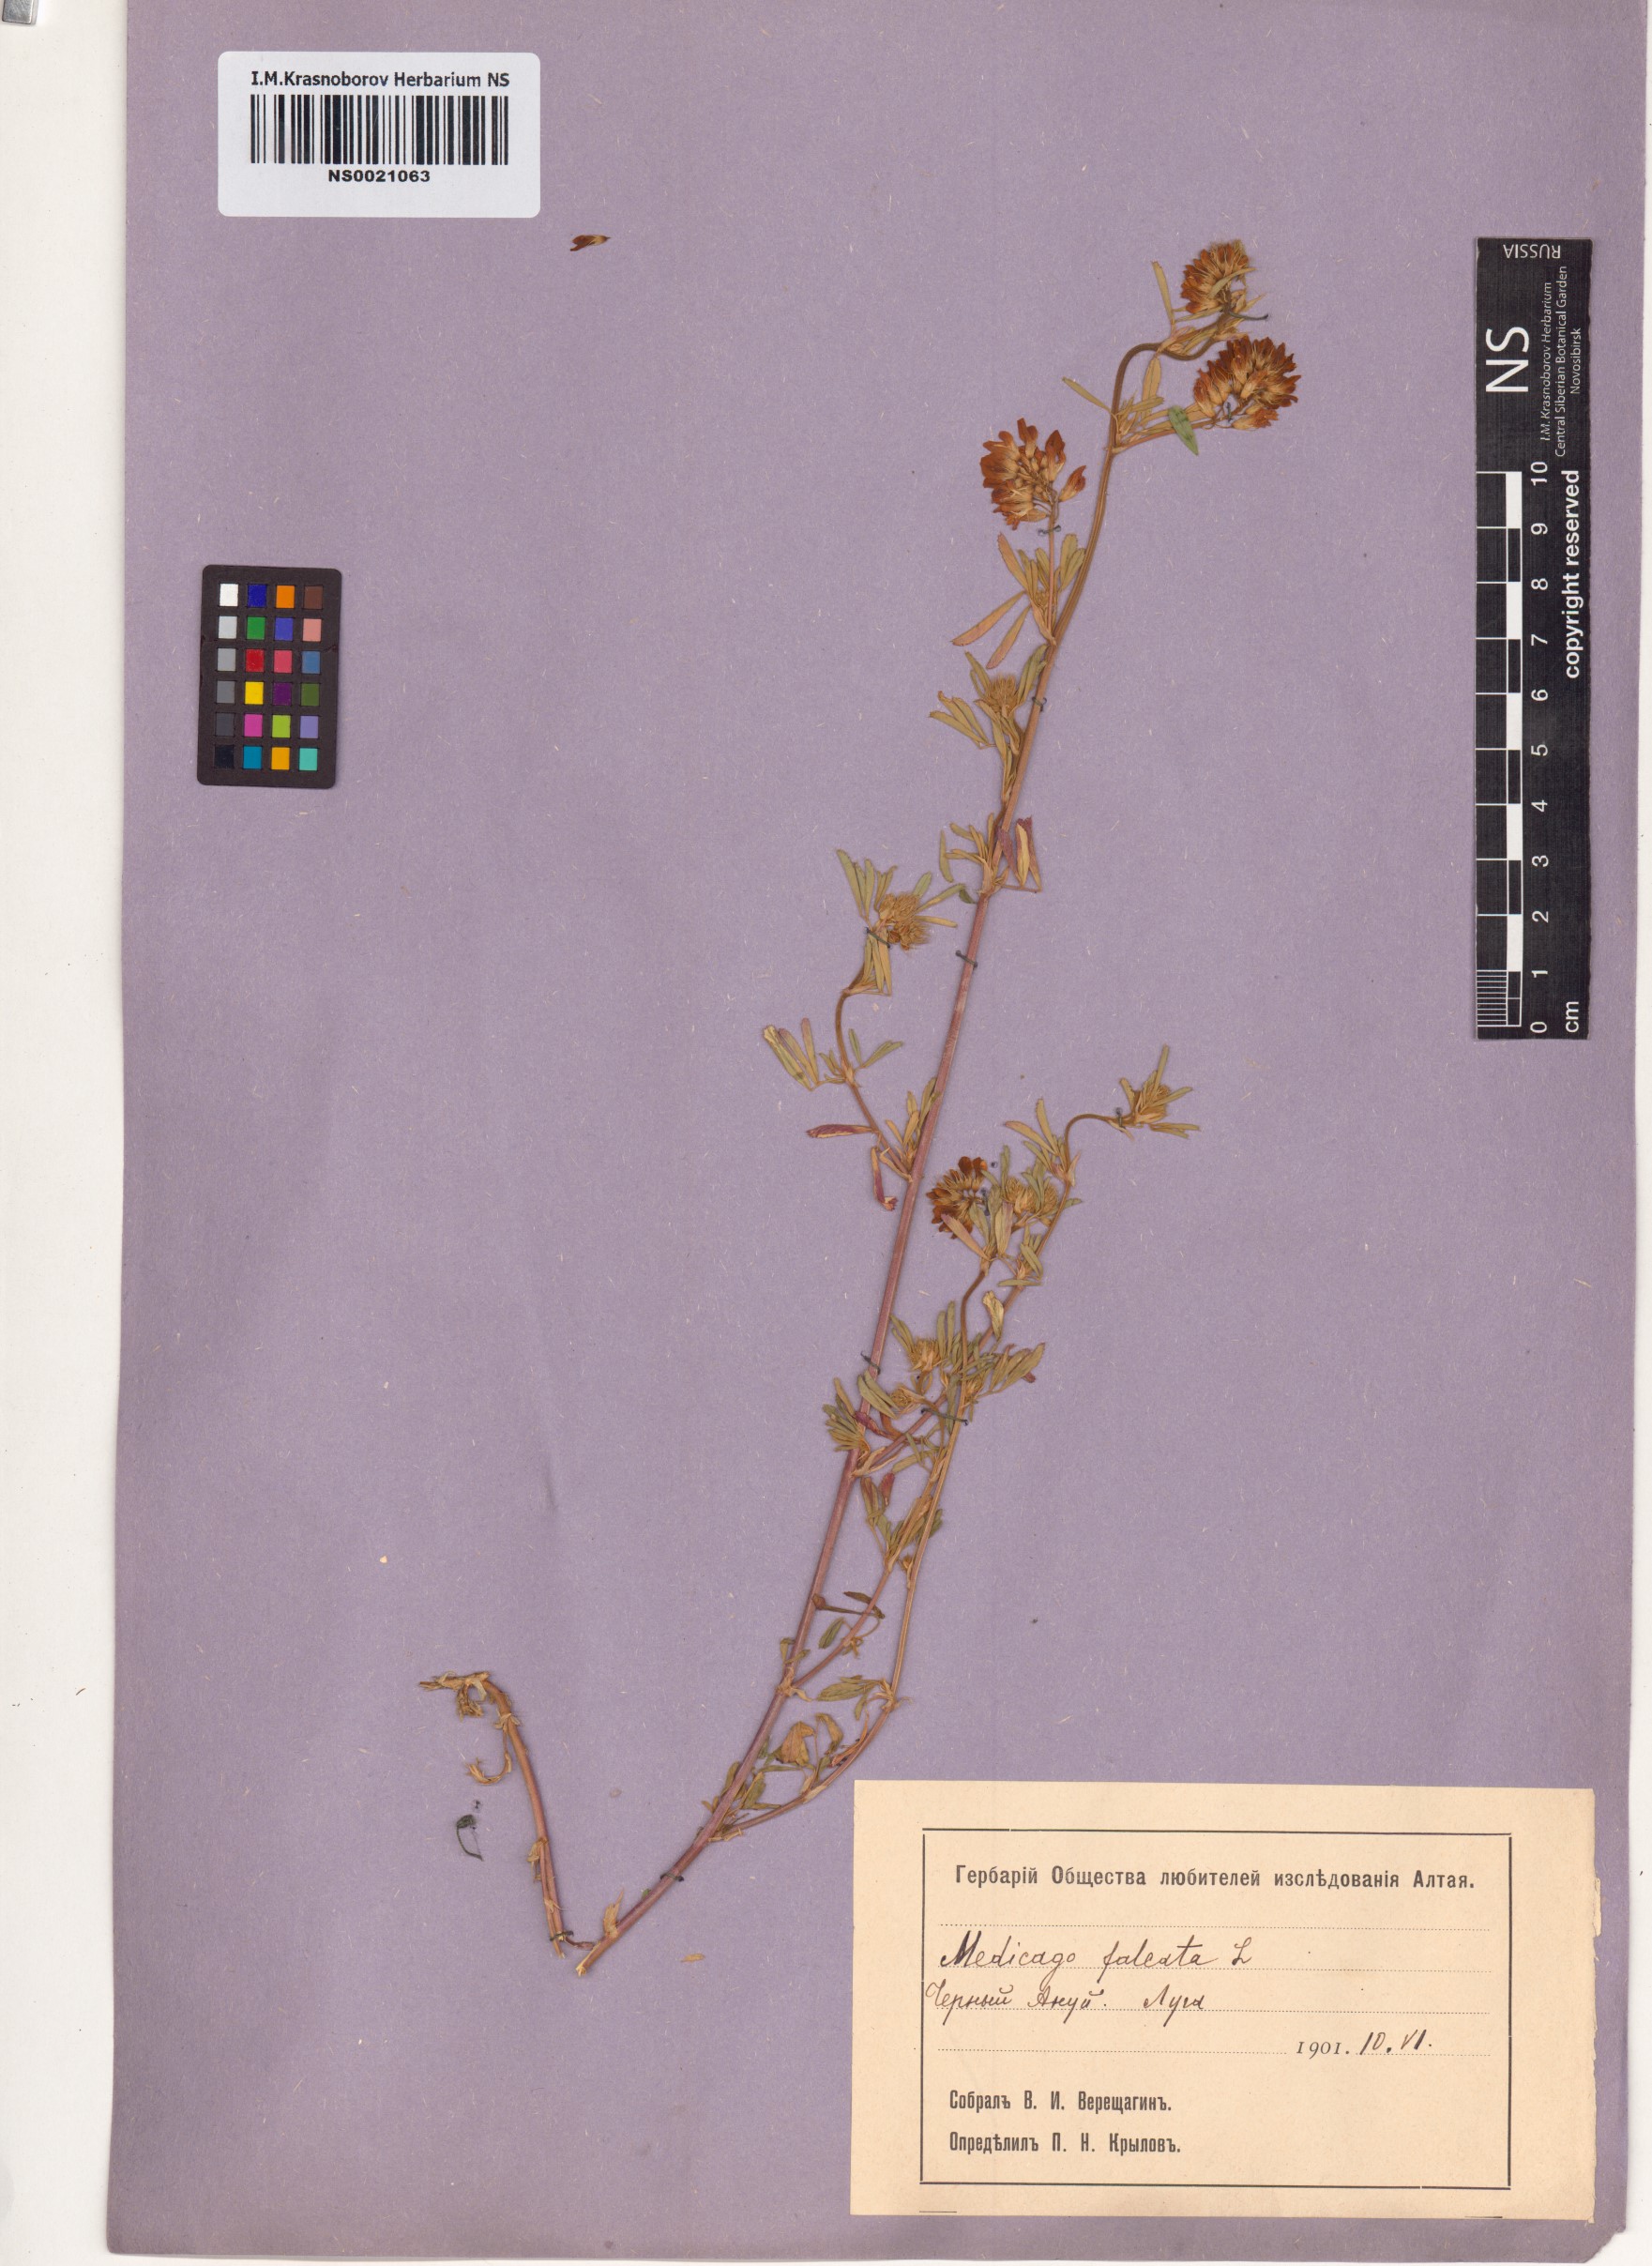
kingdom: Plantae
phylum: Tracheophyta
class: Magnoliopsida
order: Fabales
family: Fabaceae
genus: Medicago
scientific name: Medicago falcata
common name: Sickle medick
